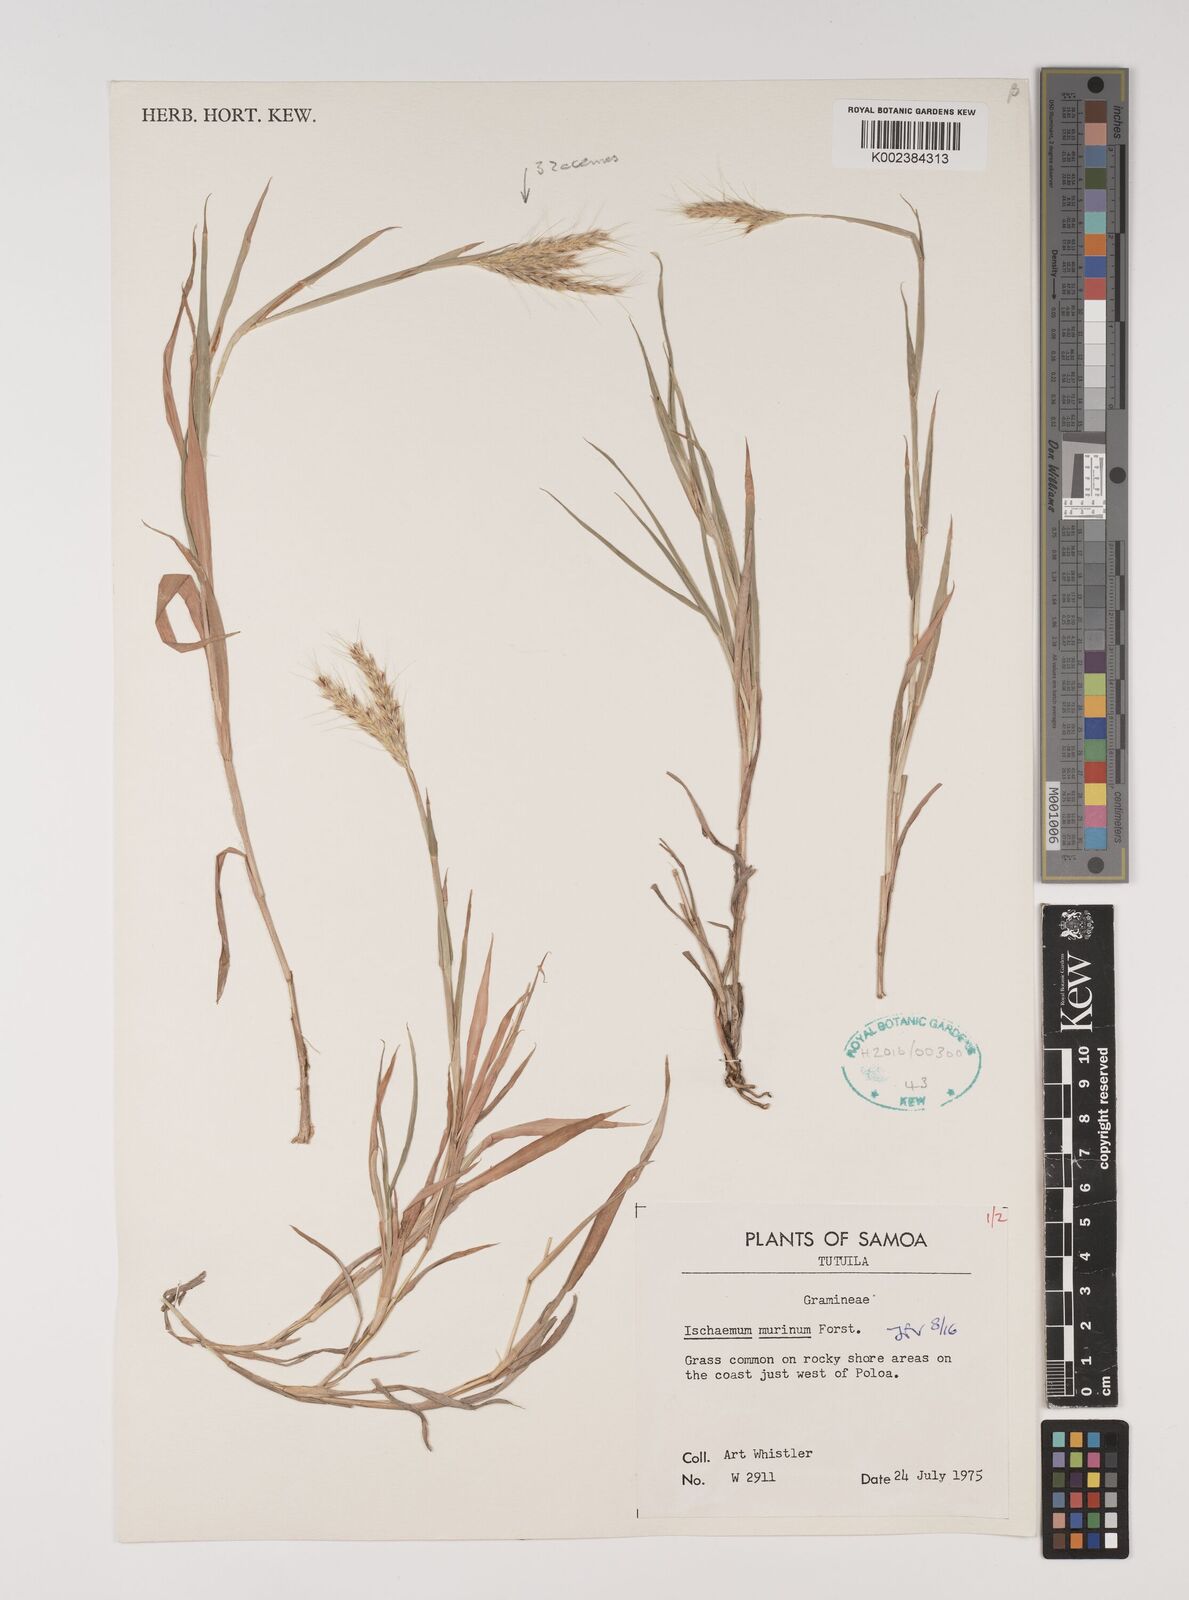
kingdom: Plantae
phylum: Tracheophyta
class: Liliopsida
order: Poales
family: Poaceae
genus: Ischaemum
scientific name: Ischaemum murinum
